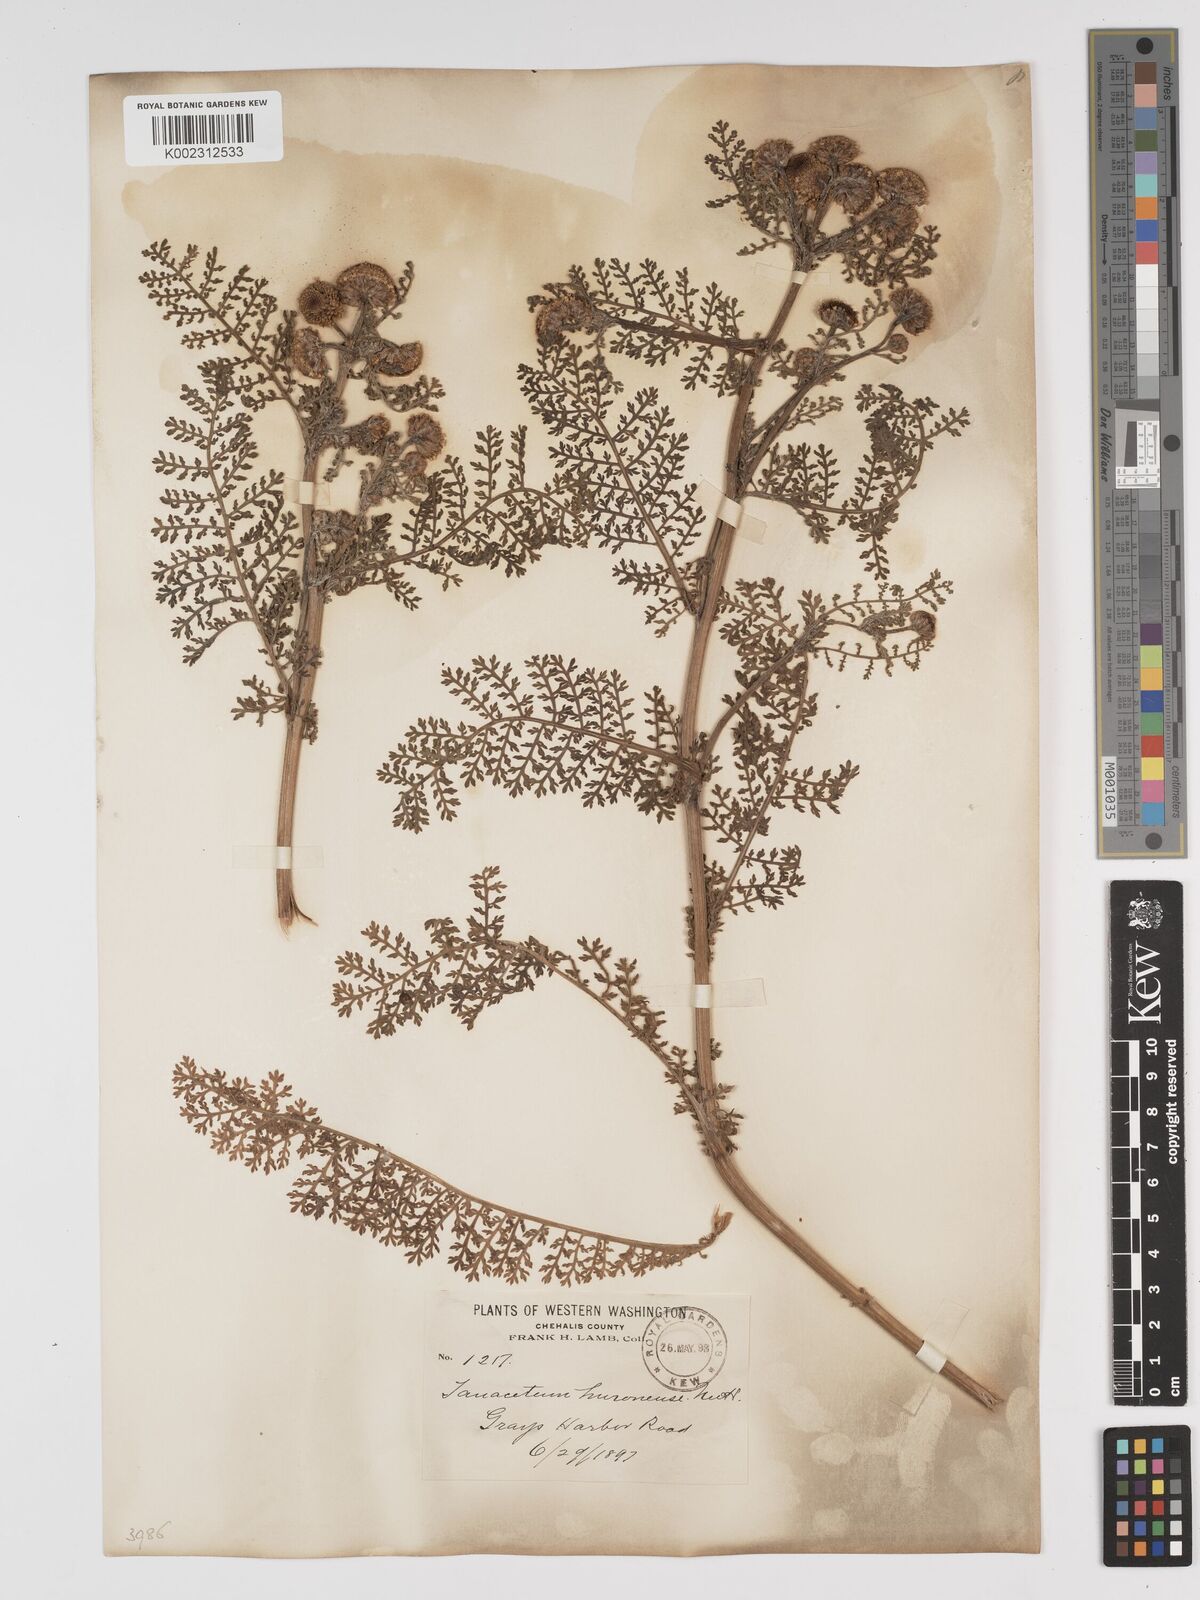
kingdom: Plantae
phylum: Tracheophyta
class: Magnoliopsida
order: Asterales
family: Asteraceae
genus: Tanacetum
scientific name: Tanacetum bipinnatum
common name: Dwarf tansy
